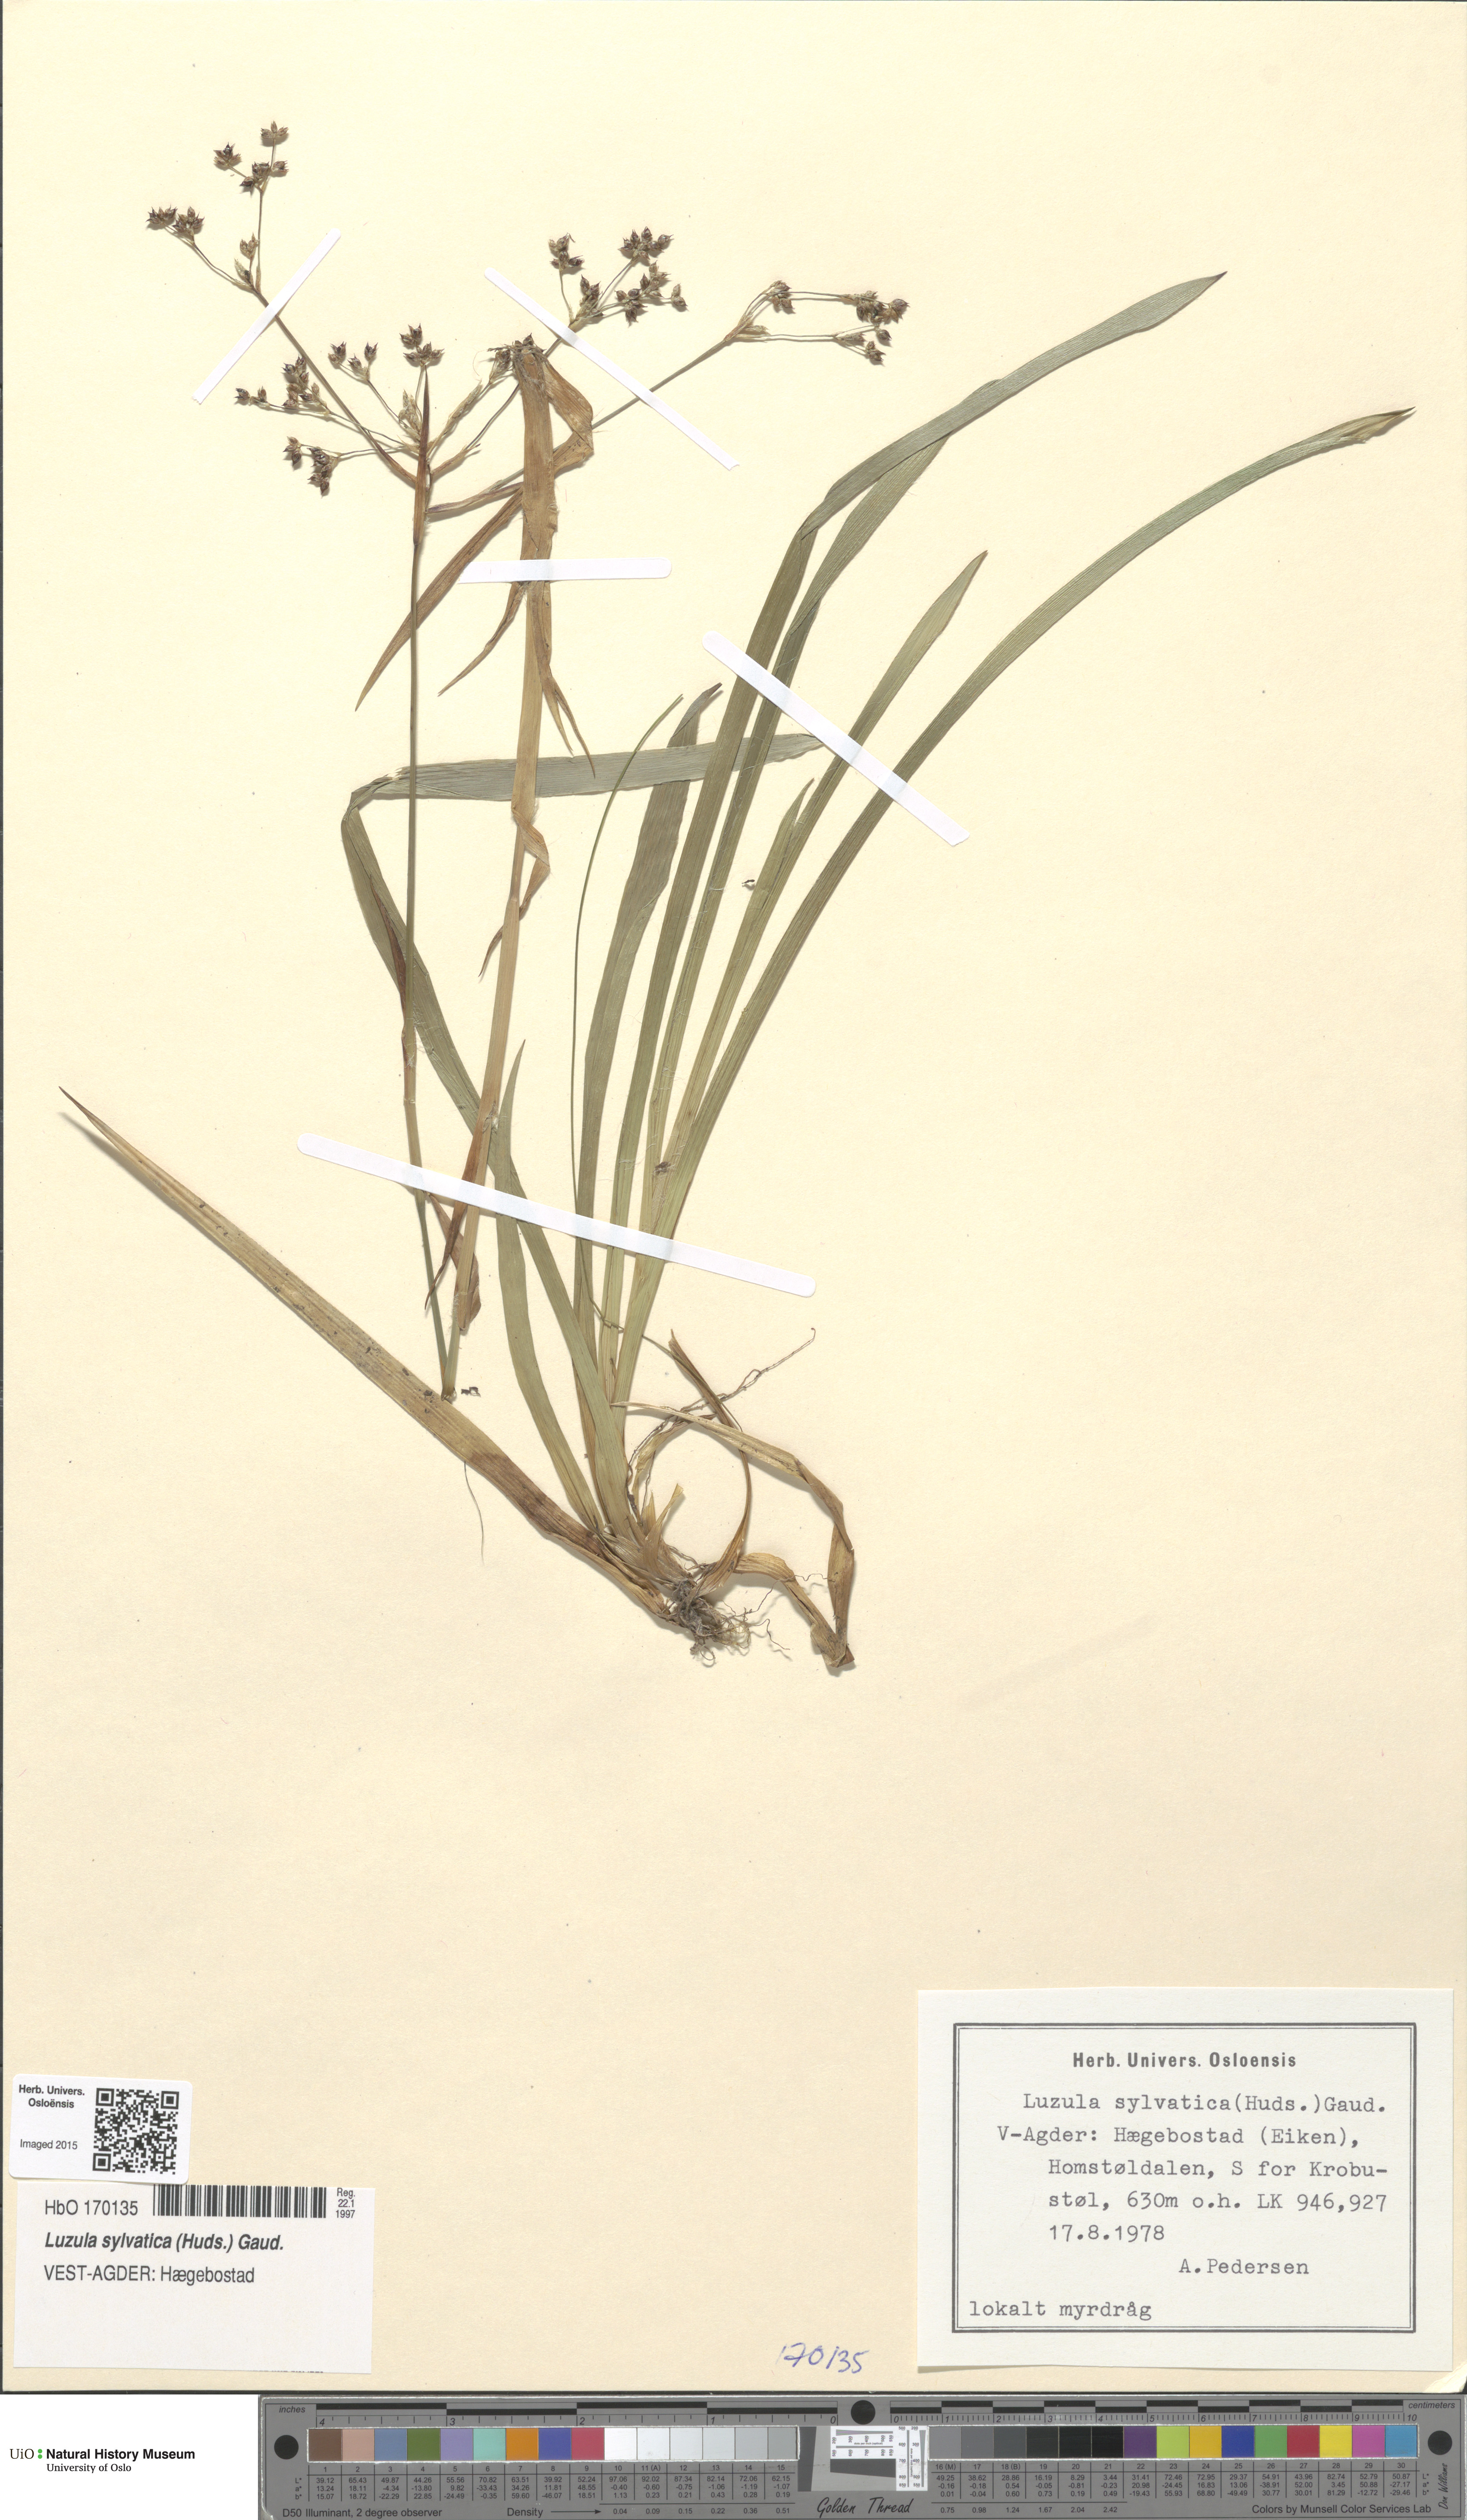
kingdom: Plantae
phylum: Tracheophyta
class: Liliopsida
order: Poales
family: Juncaceae
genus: Luzula
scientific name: Luzula sylvatica
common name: Great wood-rush
